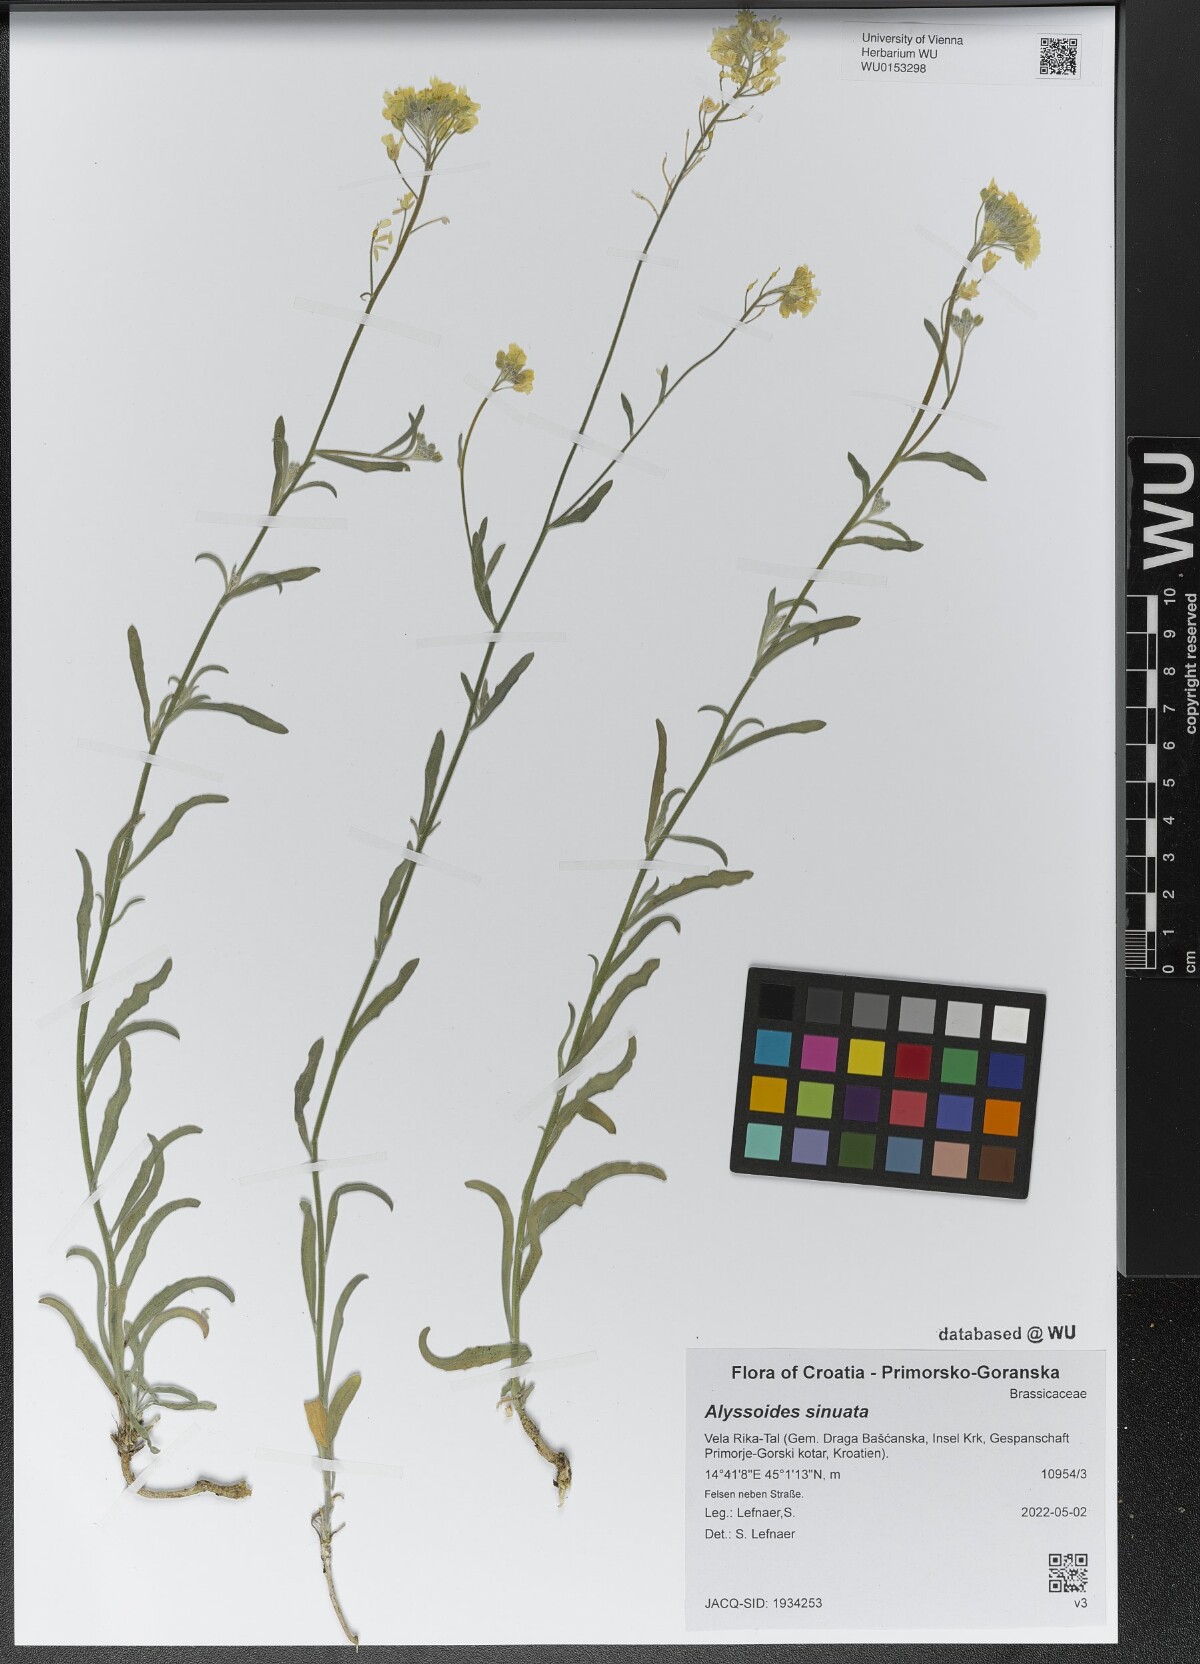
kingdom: Plantae
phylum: Tracheophyta
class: Magnoliopsida
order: Brassicales
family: Brassicaceae
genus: Aurinia
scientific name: Aurinia sinuata
